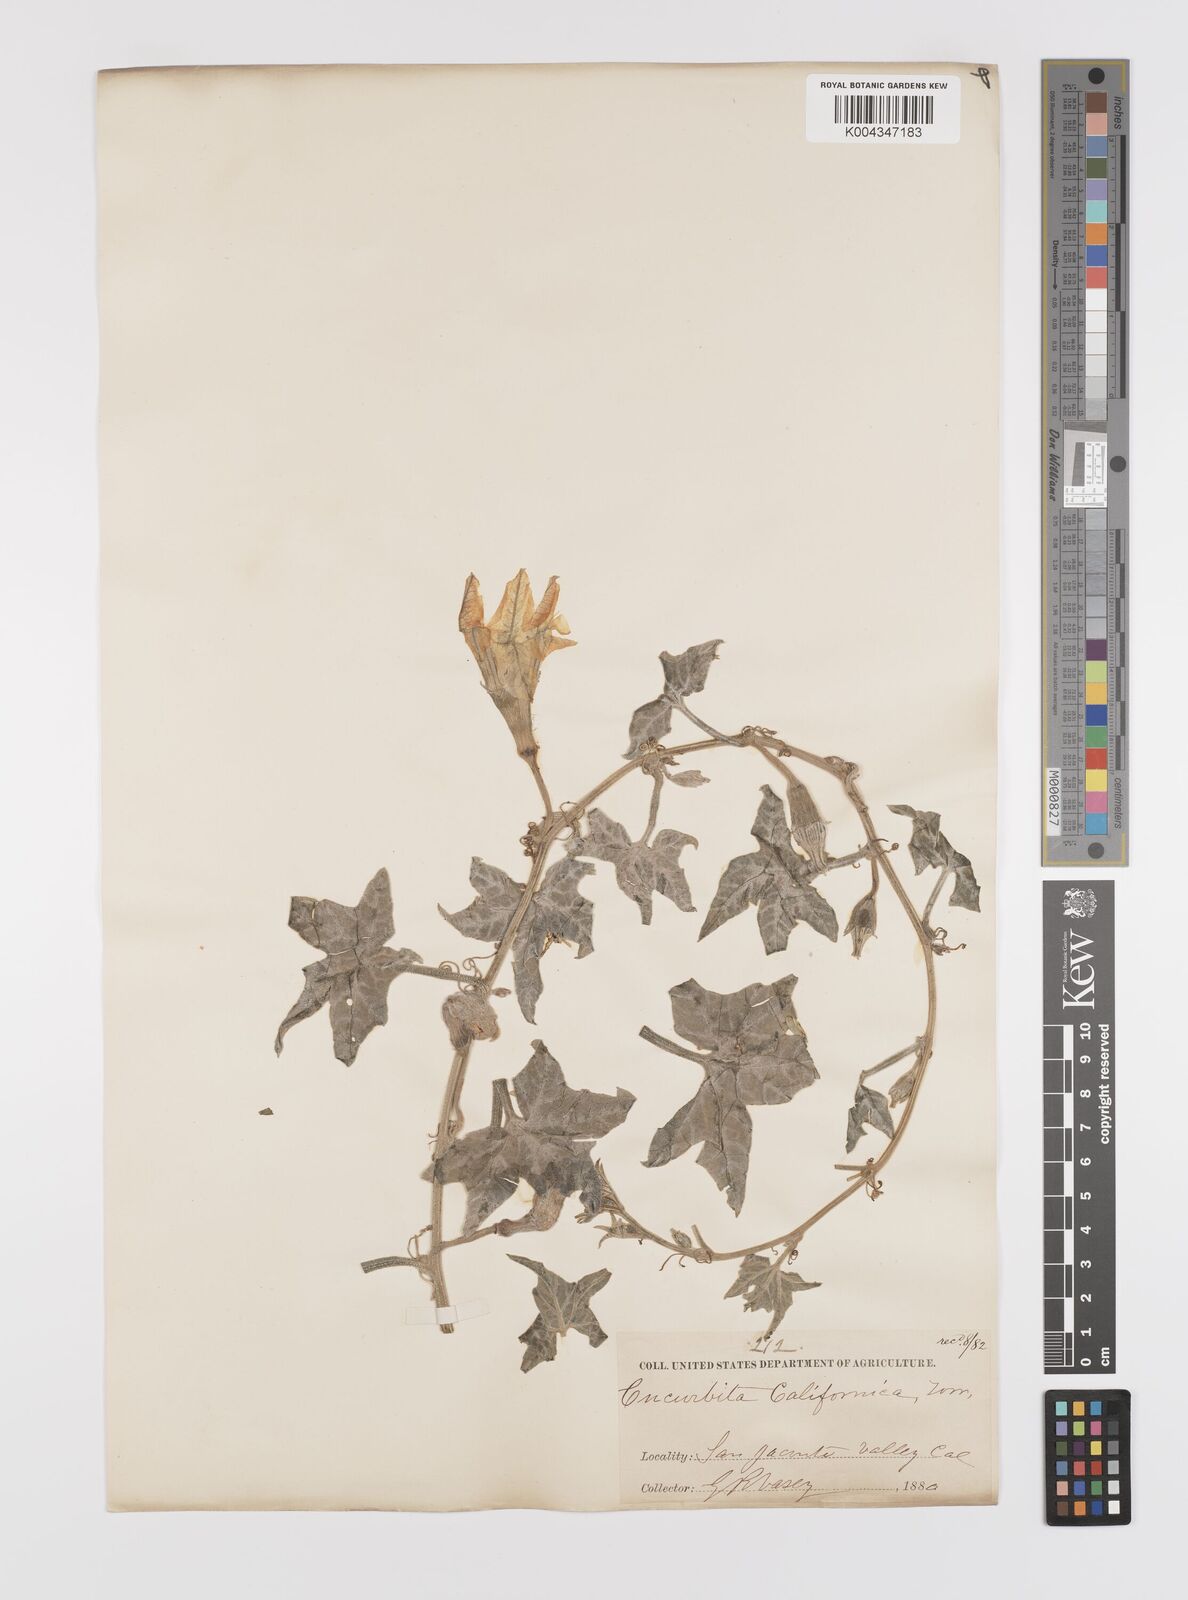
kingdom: Plantae
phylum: Tracheophyta
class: Magnoliopsida
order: Cucurbitales
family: Cucurbitaceae
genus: Cucurbita
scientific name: Cucurbita palmata
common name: Coyote-melon
